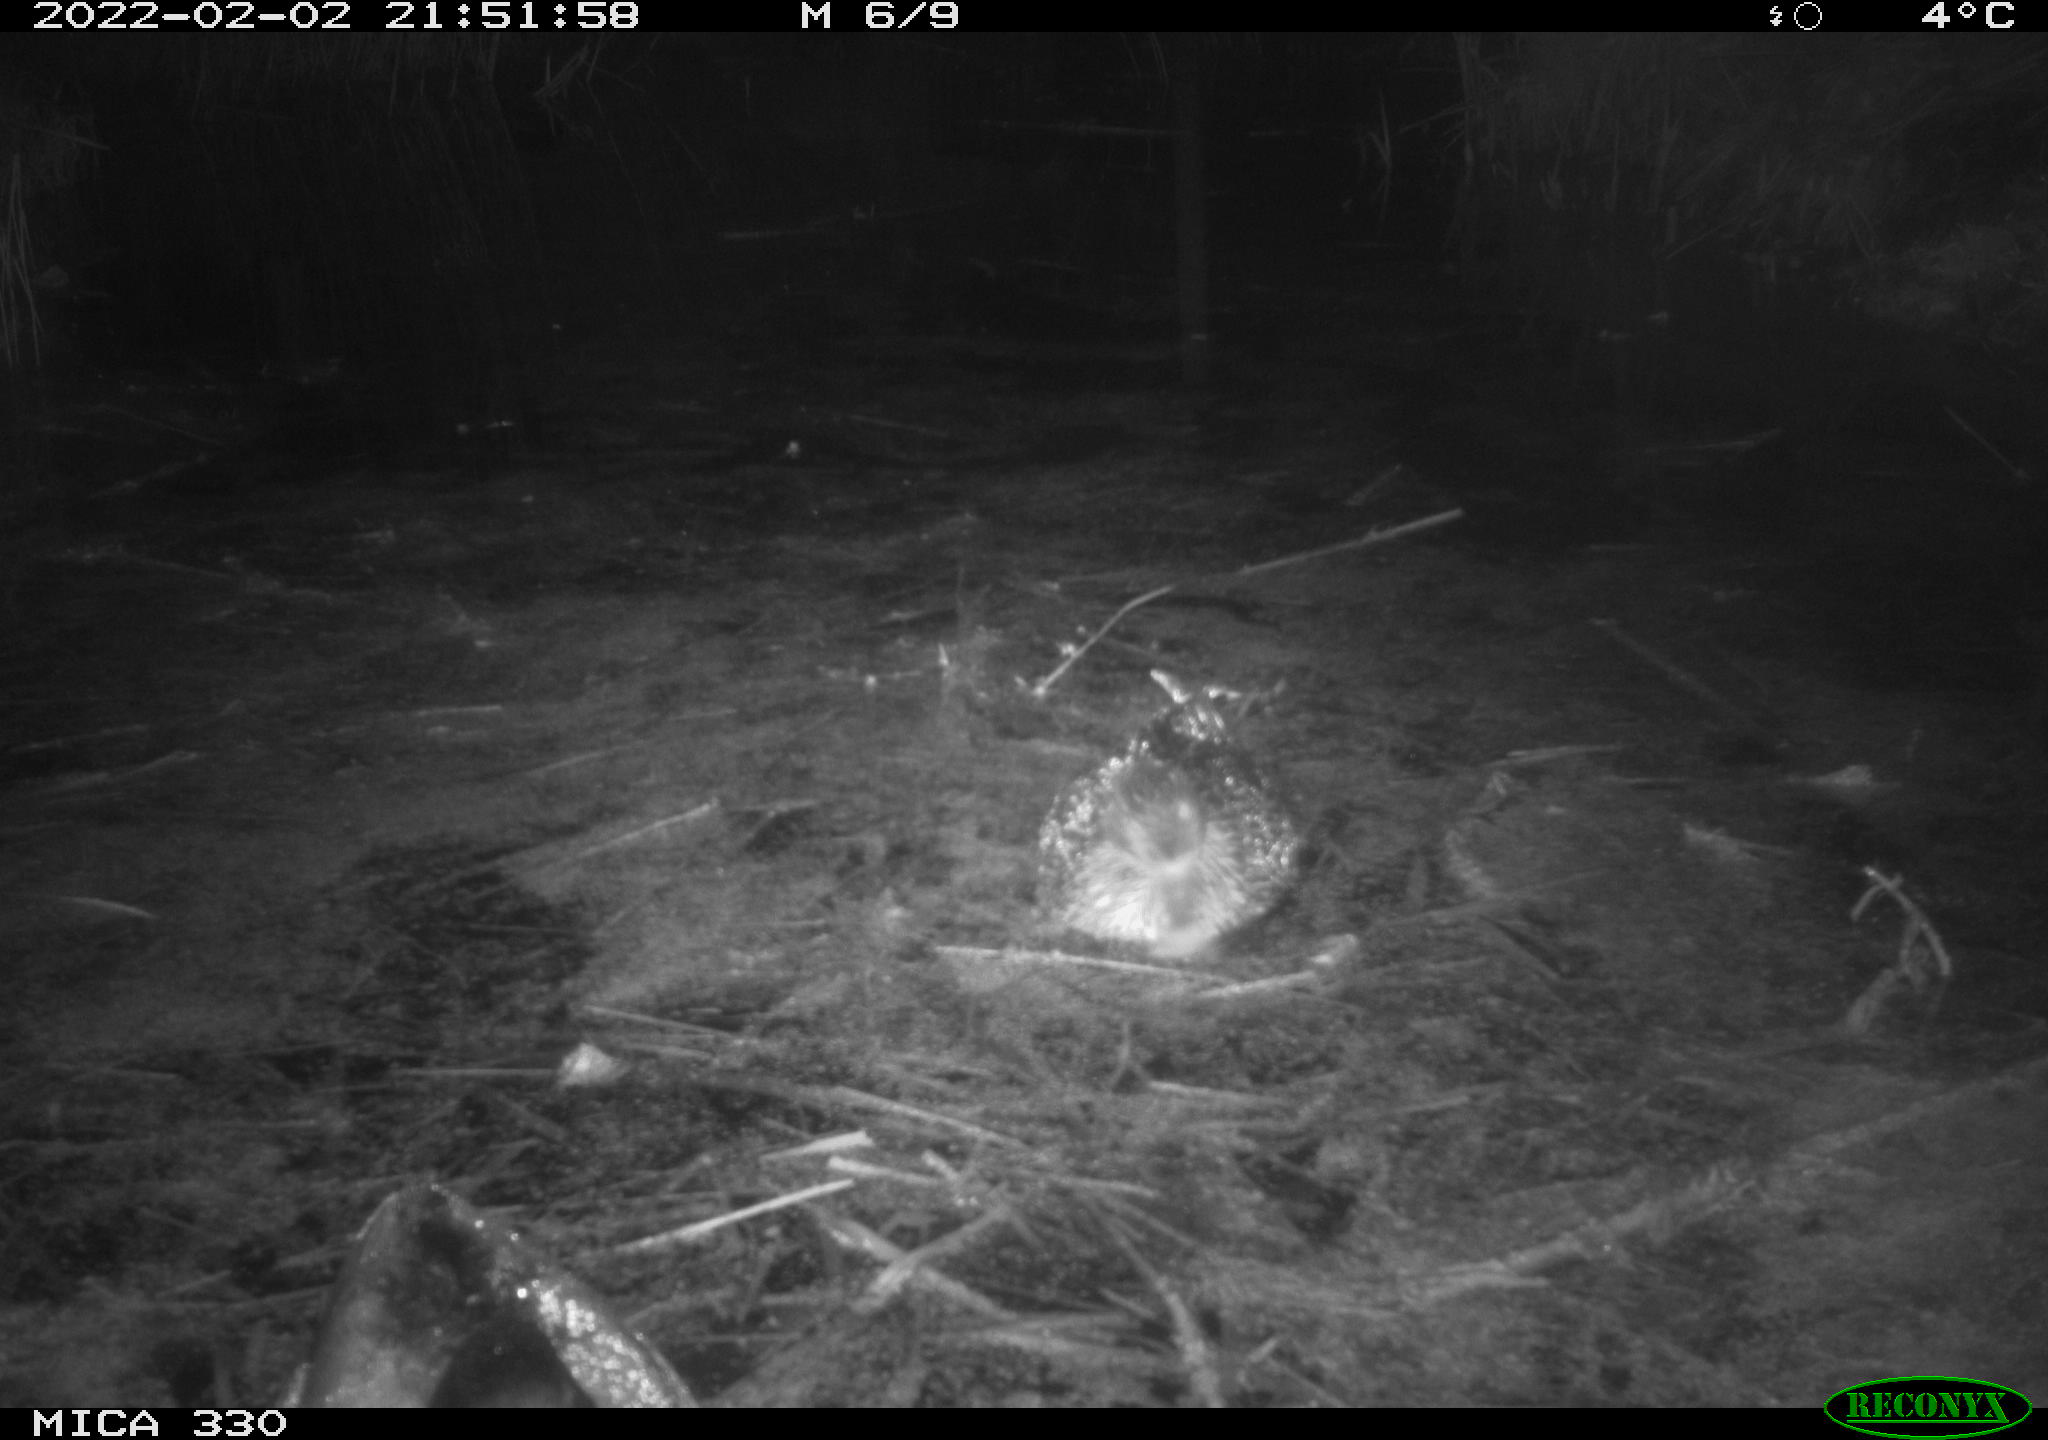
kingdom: Animalia
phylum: Chordata
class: Aves
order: Anseriformes
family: Anatidae
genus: Anas
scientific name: Anas platyrhynchos
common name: Mallard
